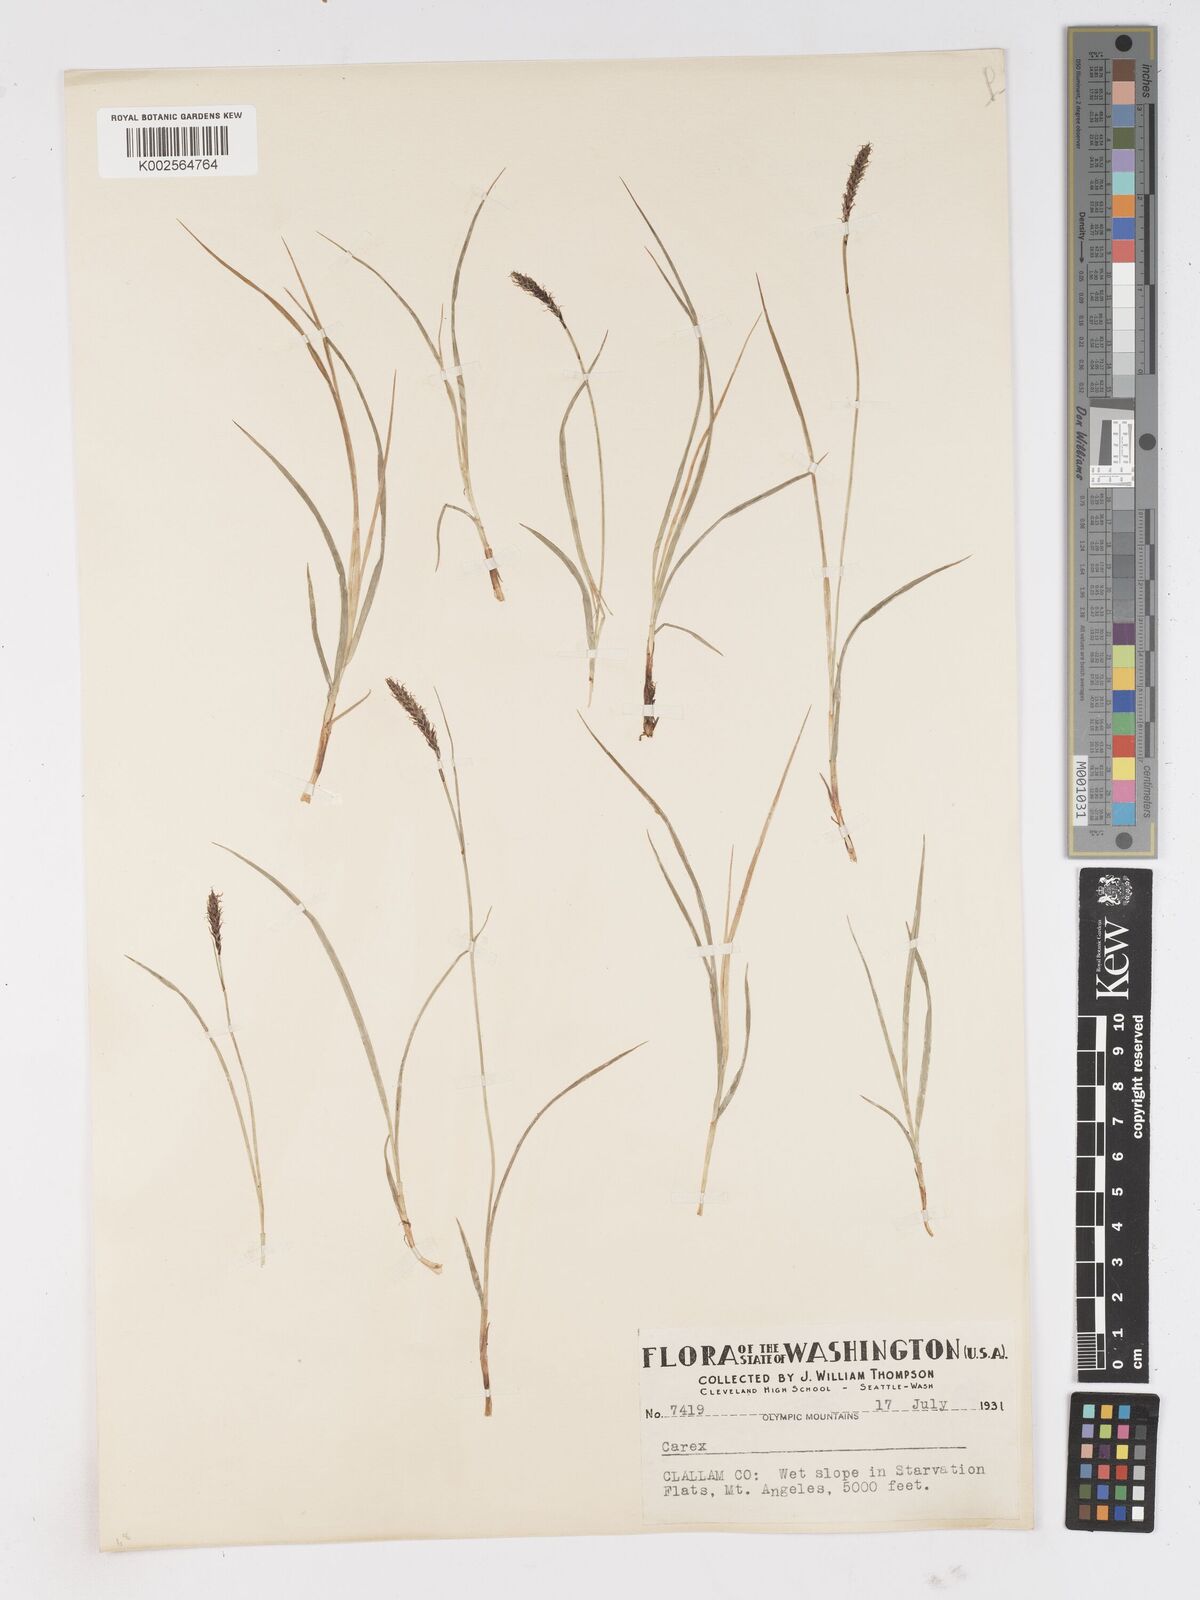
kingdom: Plantae
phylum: Tracheophyta
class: Liliopsida
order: Poales
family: Cyperaceae
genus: Carex
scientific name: Carex
